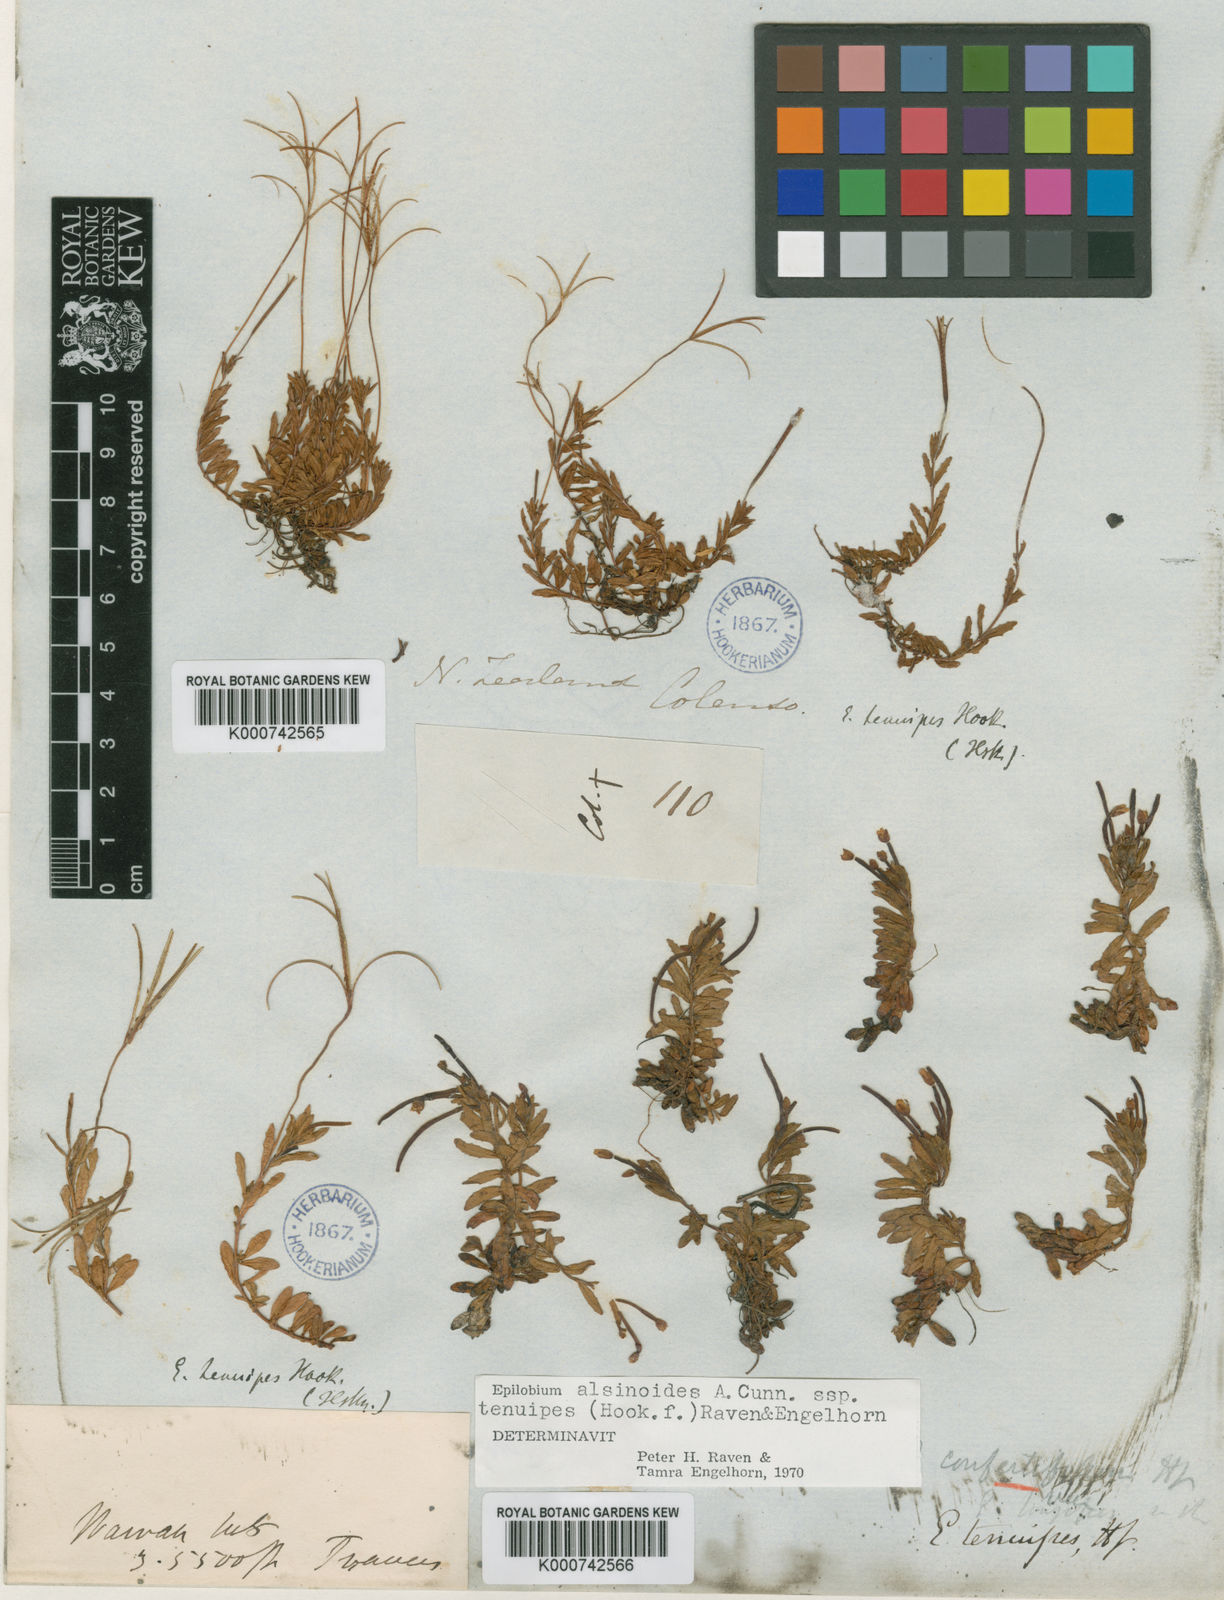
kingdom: Plantae
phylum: Tracheophyta
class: Magnoliopsida
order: Myrtales
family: Onagraceae
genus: Epilobium
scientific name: Epilobium alsinoides
